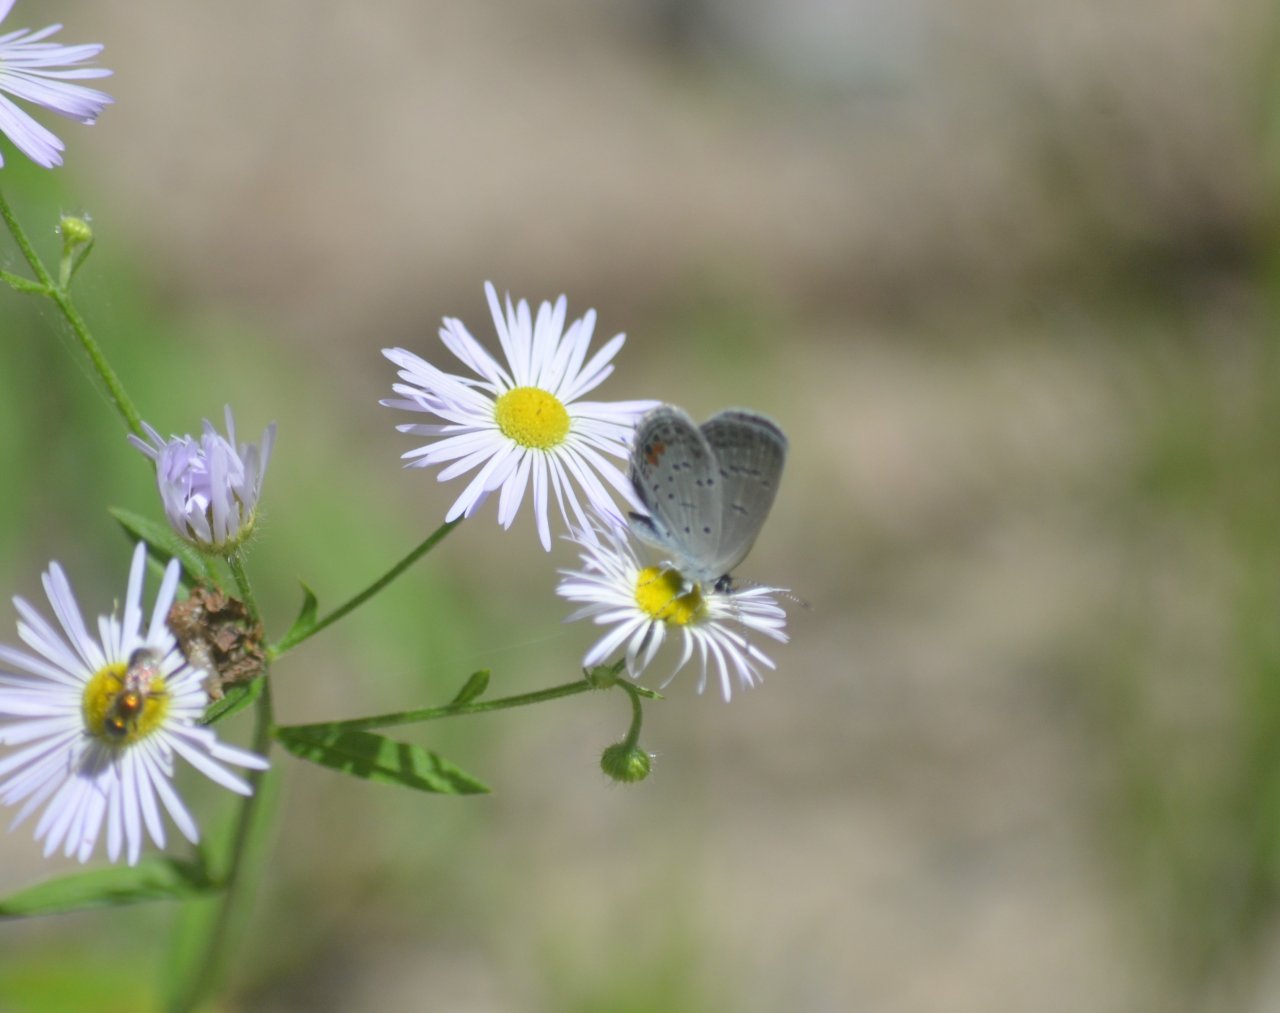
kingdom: Animalia
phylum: Arthropoda
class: Insecta
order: Lepidoptera
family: Lycaenidae
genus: Elkalyce
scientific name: Elkalyce comyntas
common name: Eastern Tailed-Blue
